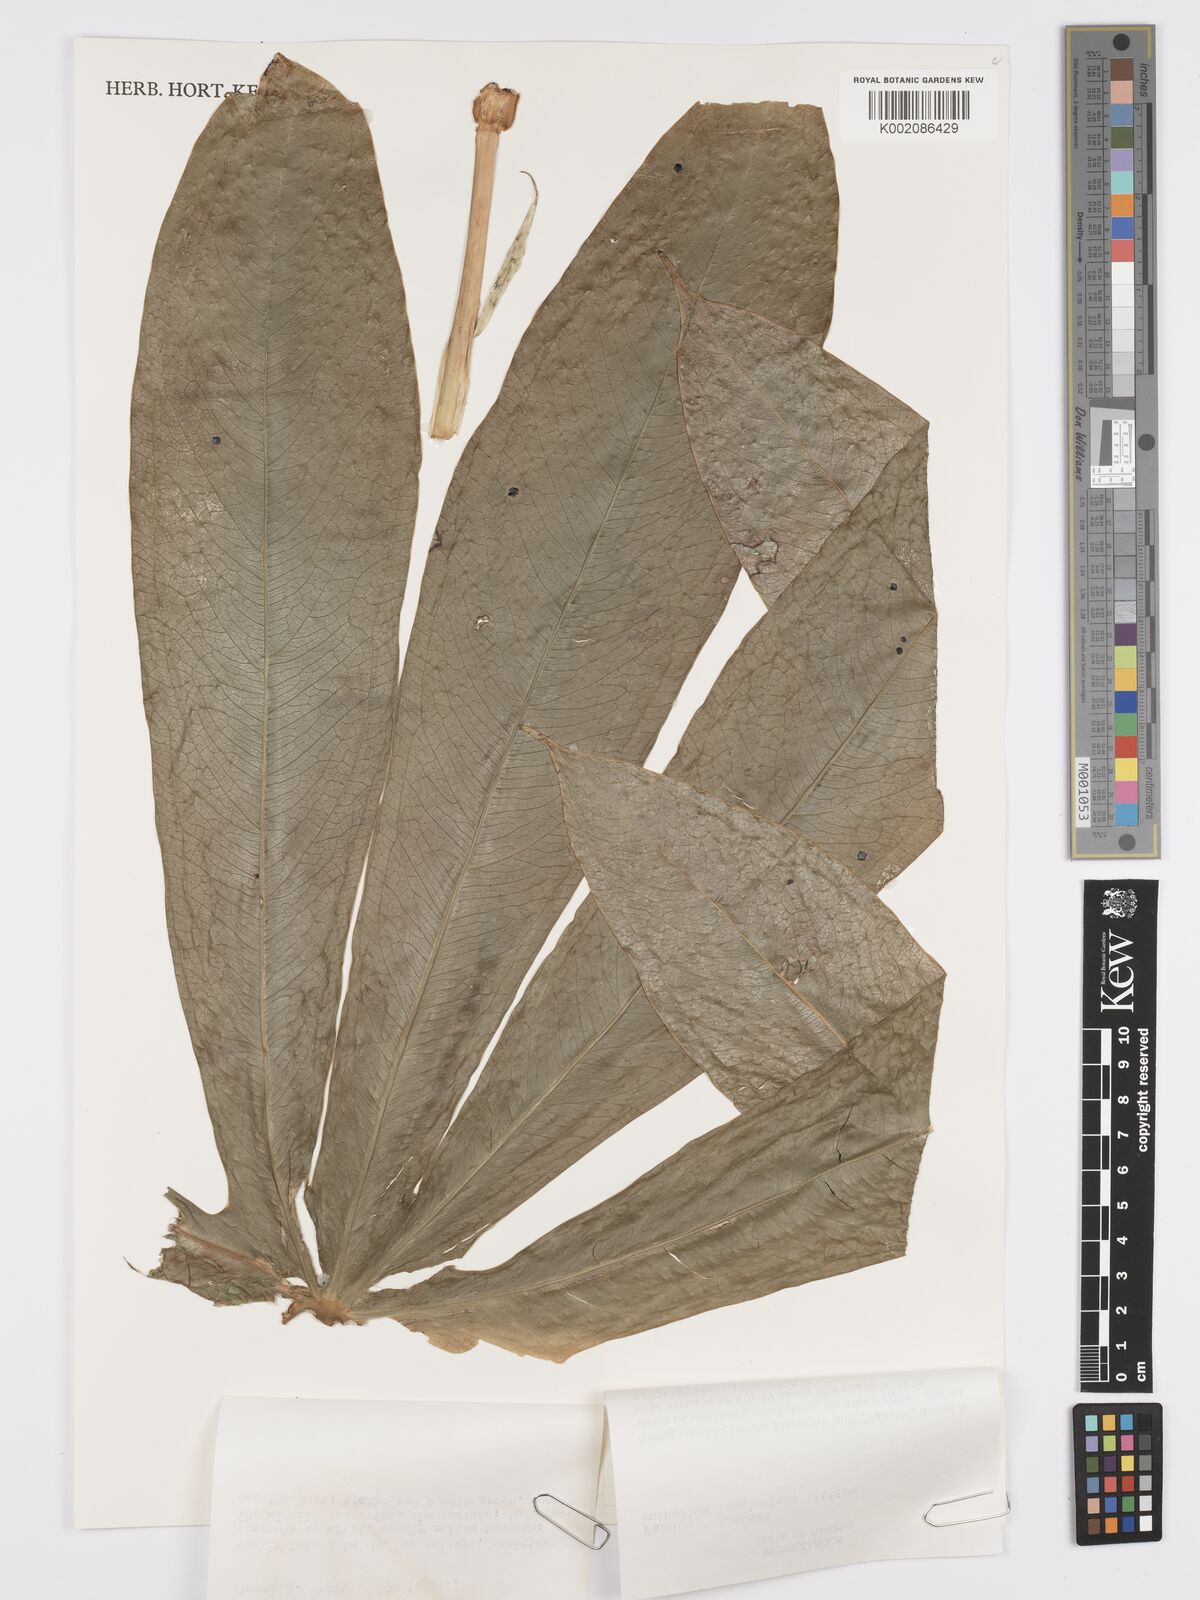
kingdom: Plantae
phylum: Tracheophyta
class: Liliopsida
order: Alismatales
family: Araceae
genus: Anthurium
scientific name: Anthurium longissimum
